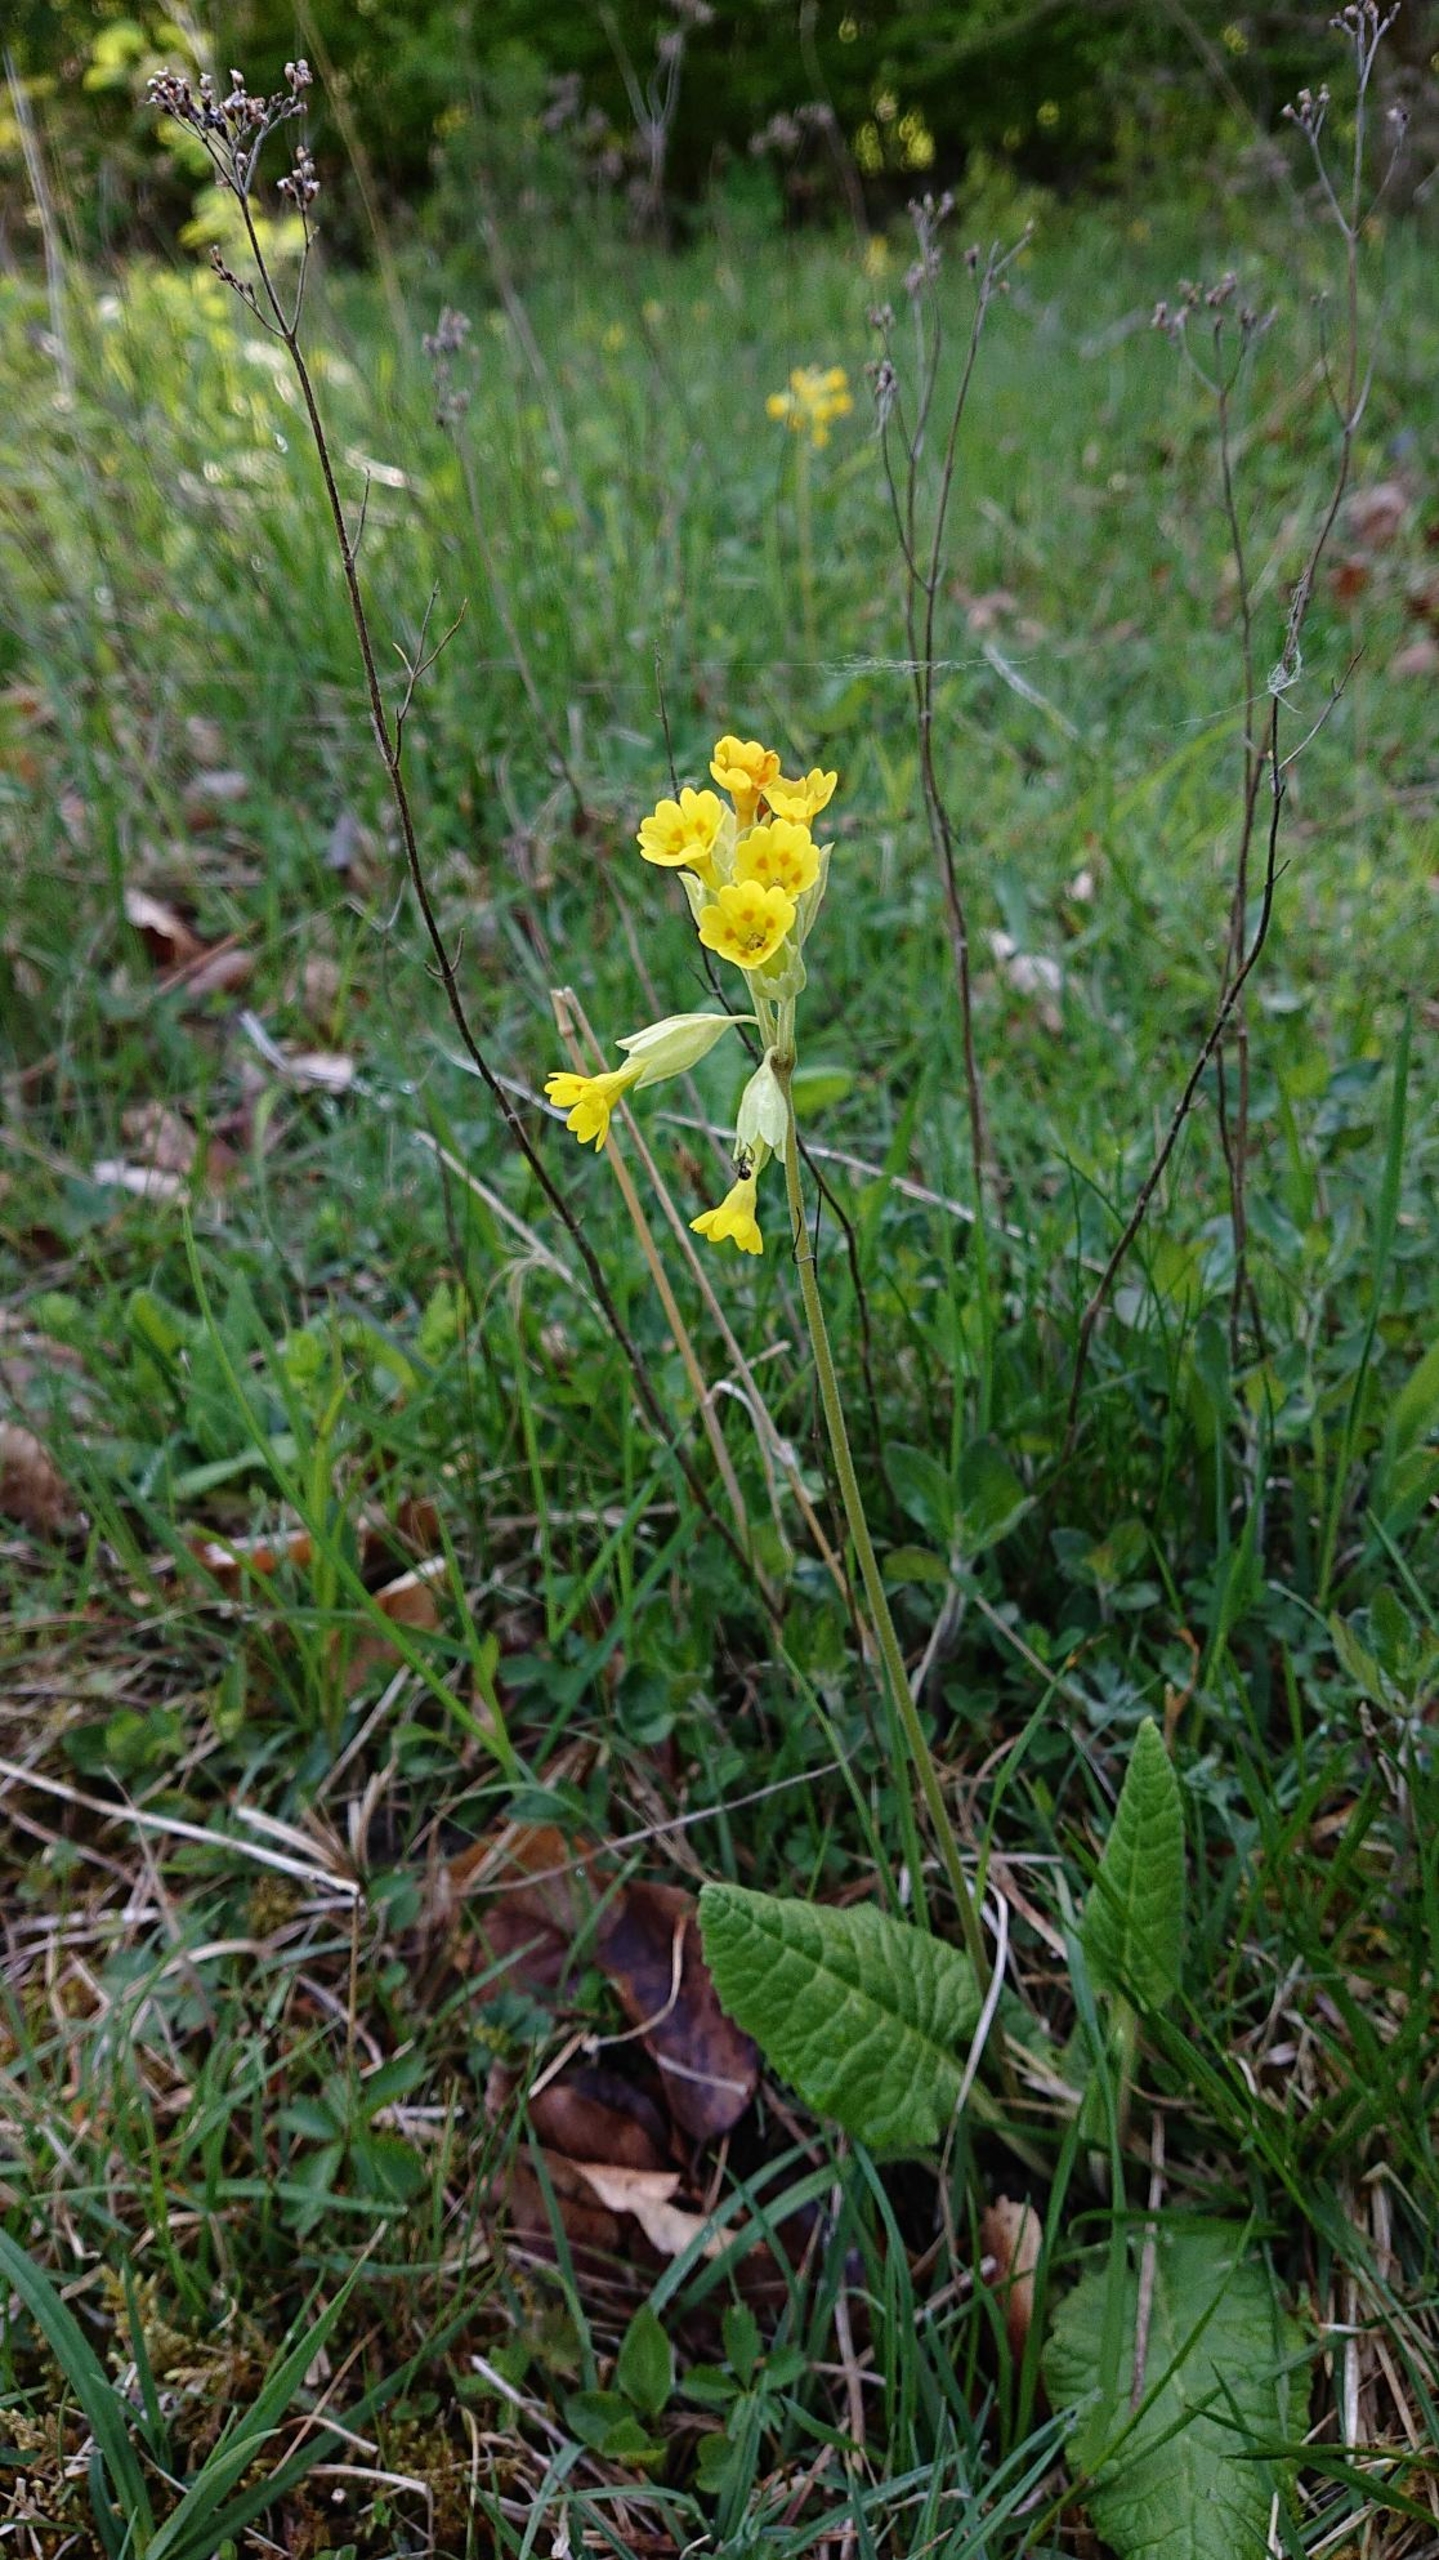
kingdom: Plantae
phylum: Tracheophyta
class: Magnoliopsida
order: Ericales
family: Primulaceae
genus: Primula
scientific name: Primula veris
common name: Hulkravet kodriver
